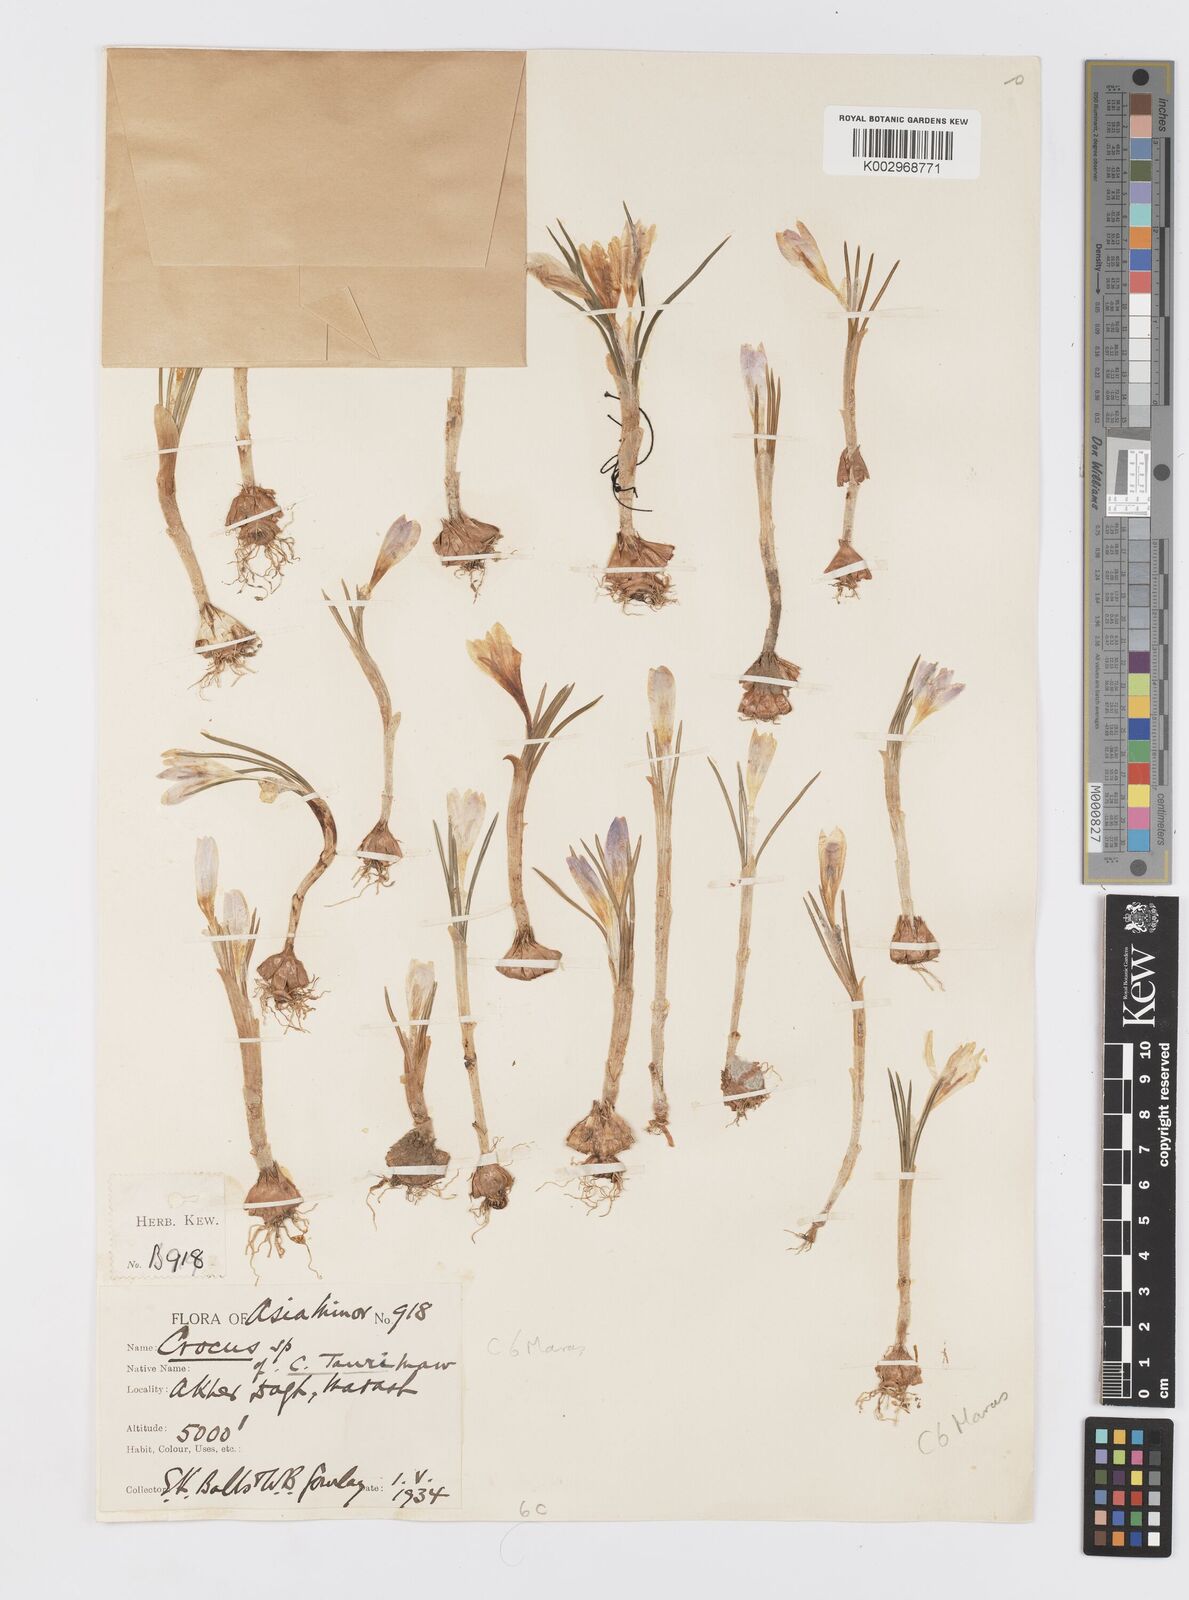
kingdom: Plantae
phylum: Tracheophyta
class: Liliopsida
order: Asparagales
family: Iridaceae
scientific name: Iridaceae
